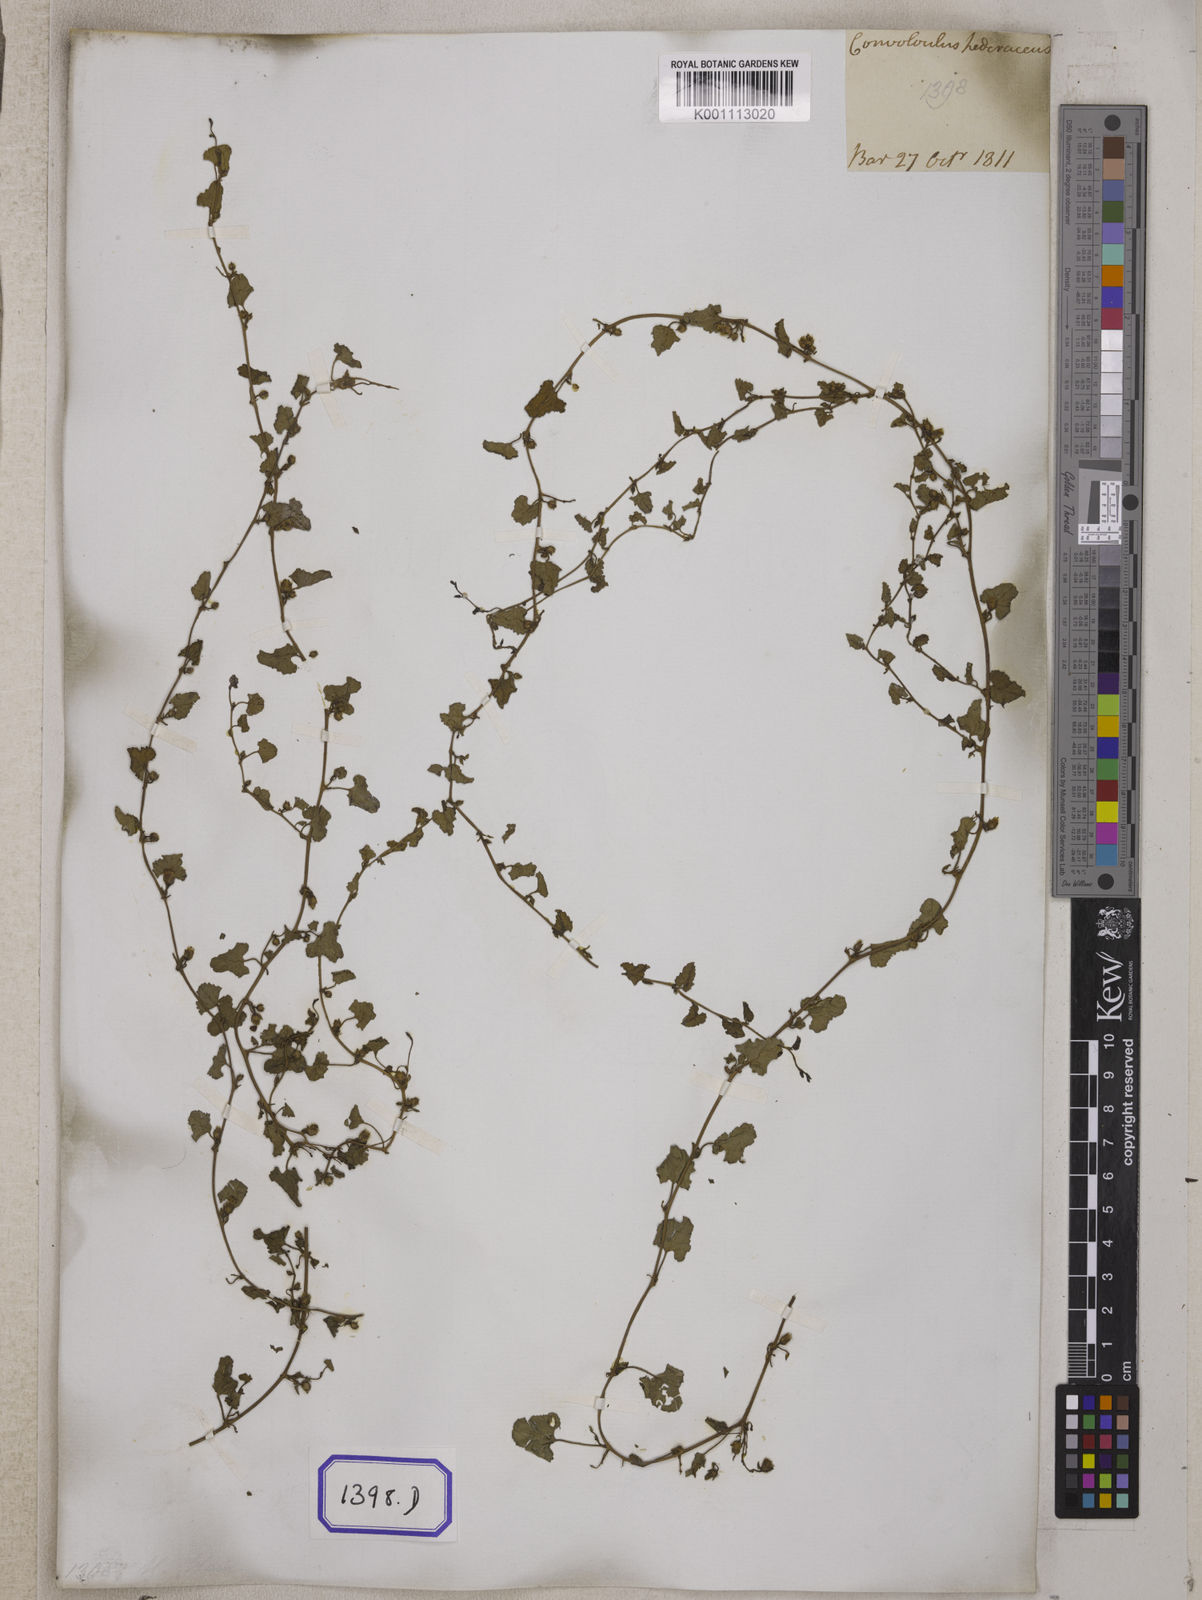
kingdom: Plantae
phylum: Tracheophyta
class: Magnoliopsida
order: Solanales
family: Convolvulaceae
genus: Merremia
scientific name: Merremia emarginata
